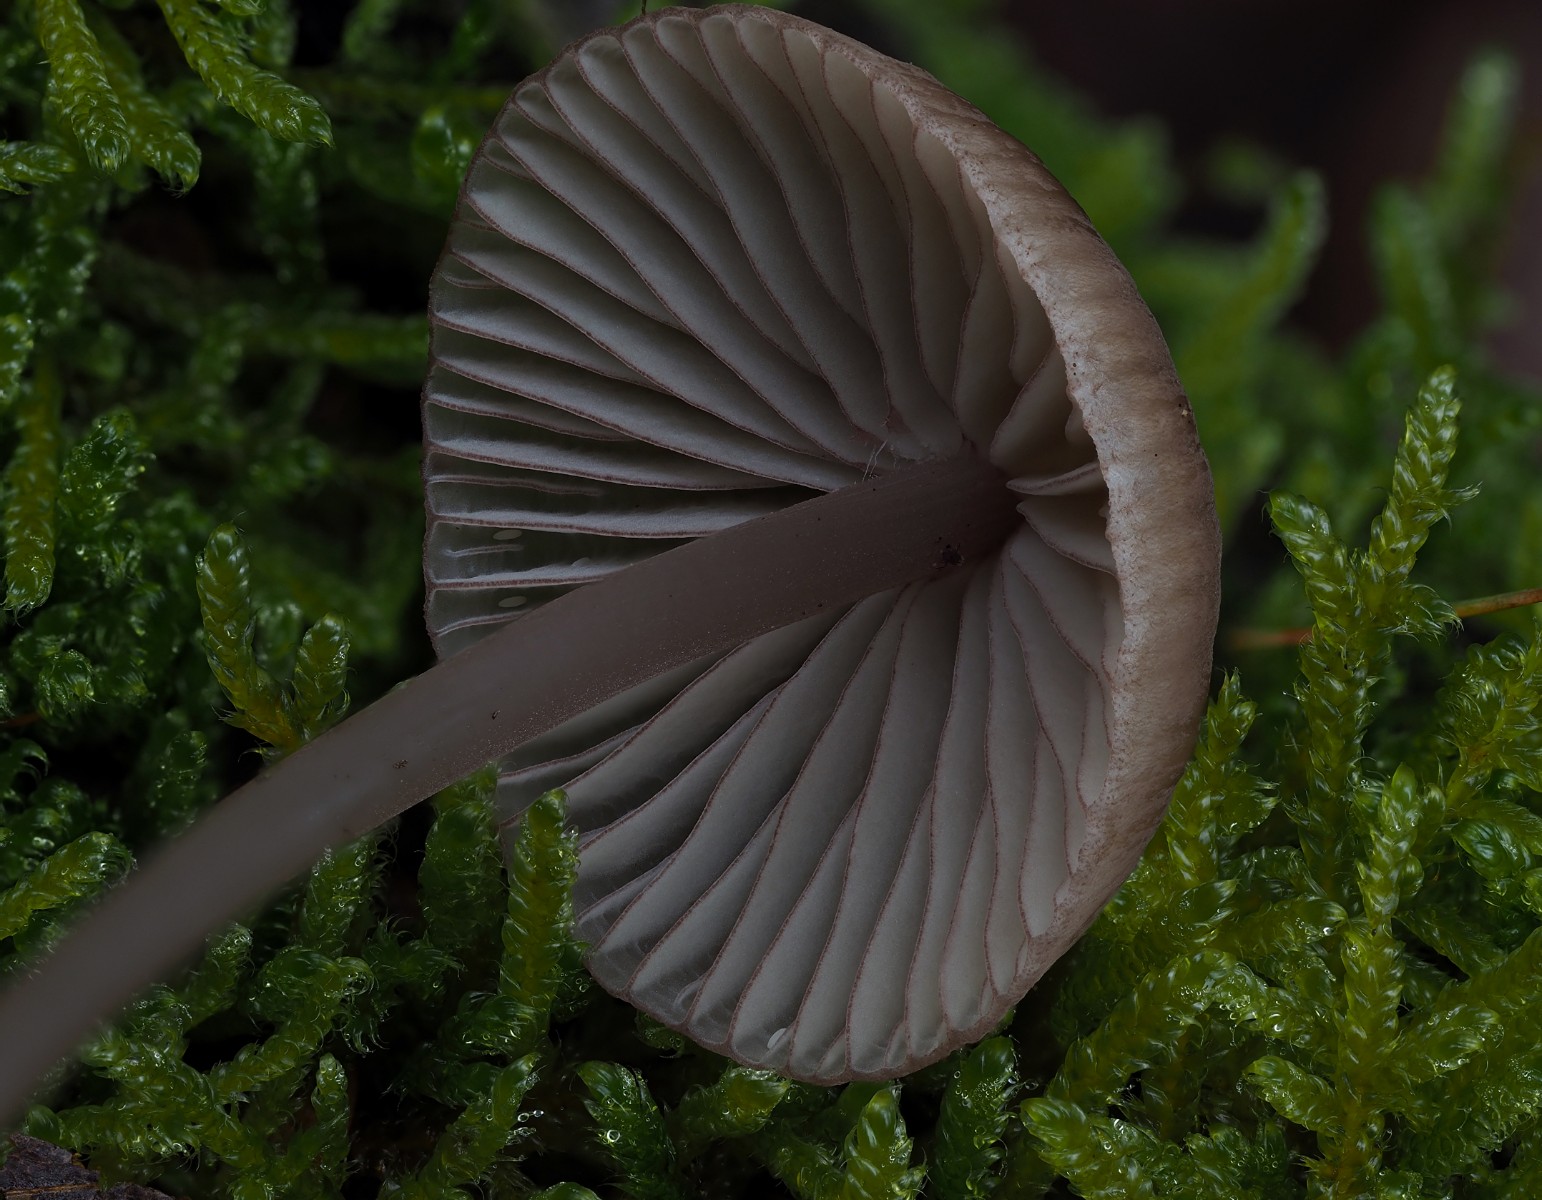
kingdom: Fungi
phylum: Basidiomycota
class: Agaricomycetes
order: Agaricales
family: Mycenaceae
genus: Mycena
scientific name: Mycena rubromarginata
